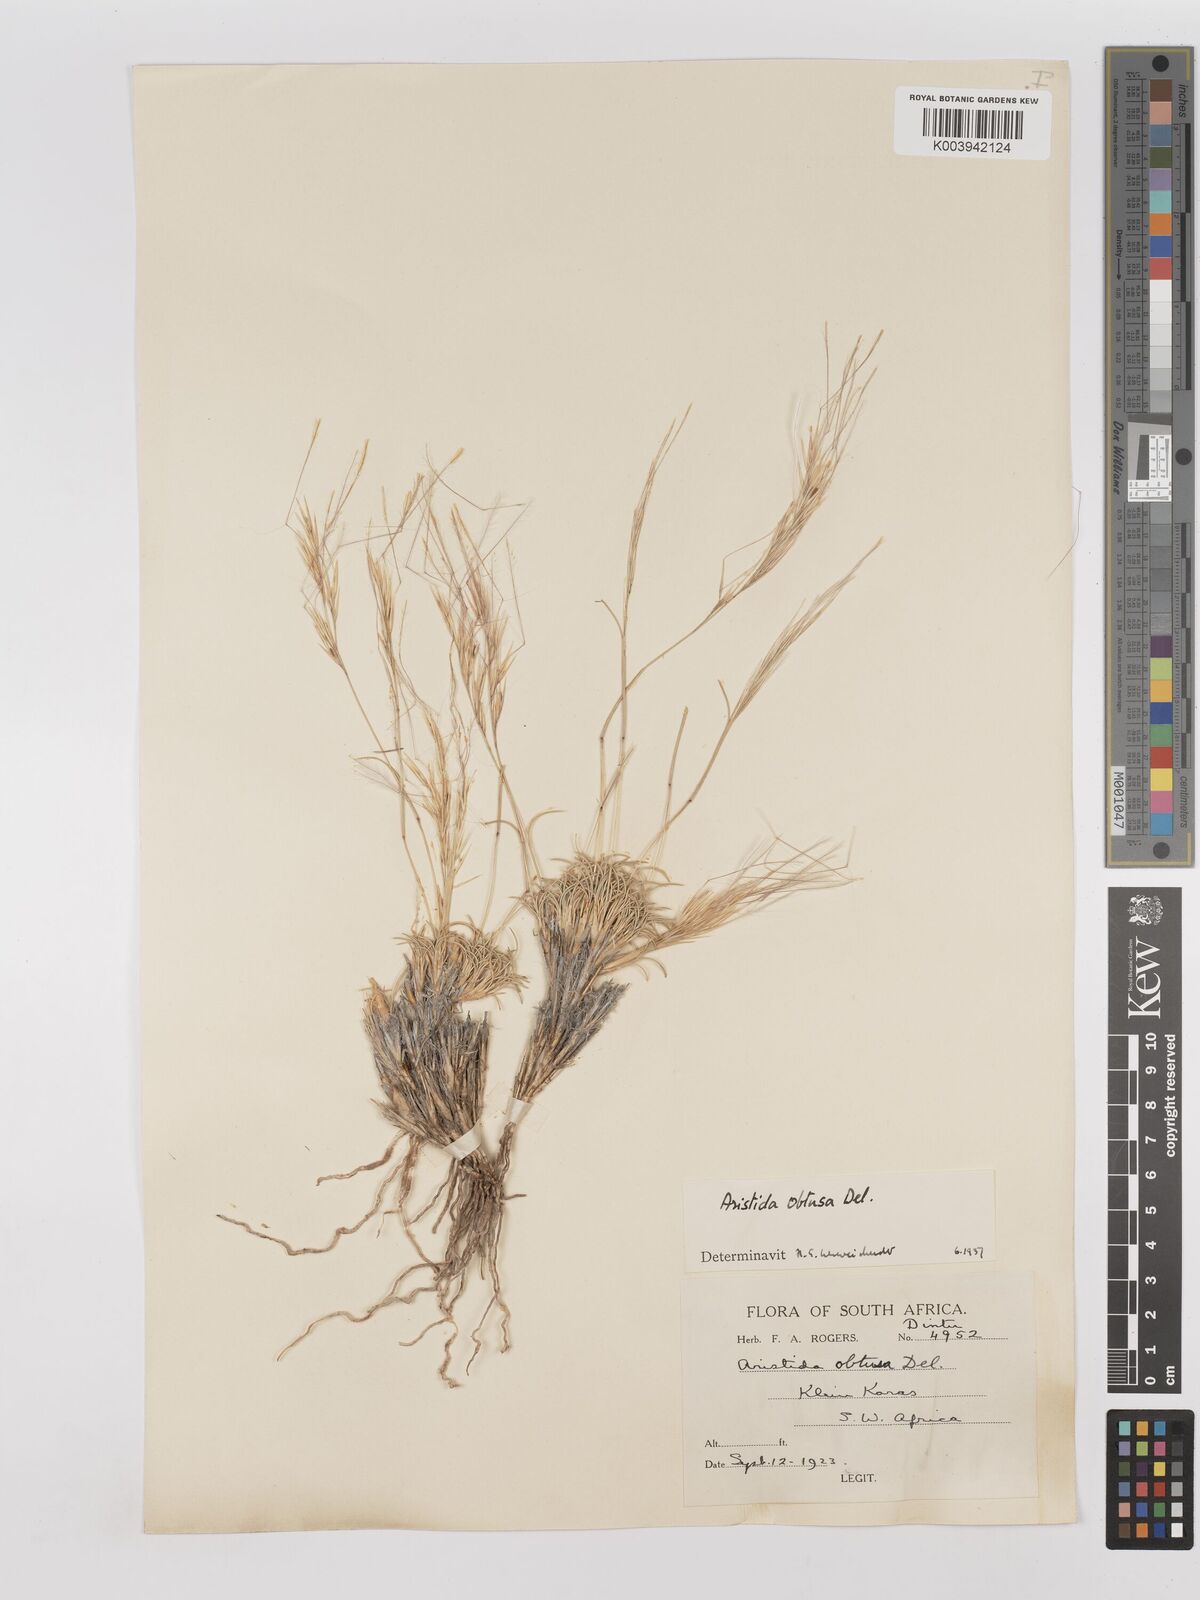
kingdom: Plantae
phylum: Tracheophyta
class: Liliopsida
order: Poales
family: Poaceae
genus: Stipagrostis
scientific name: Stipagrostis obtusa
